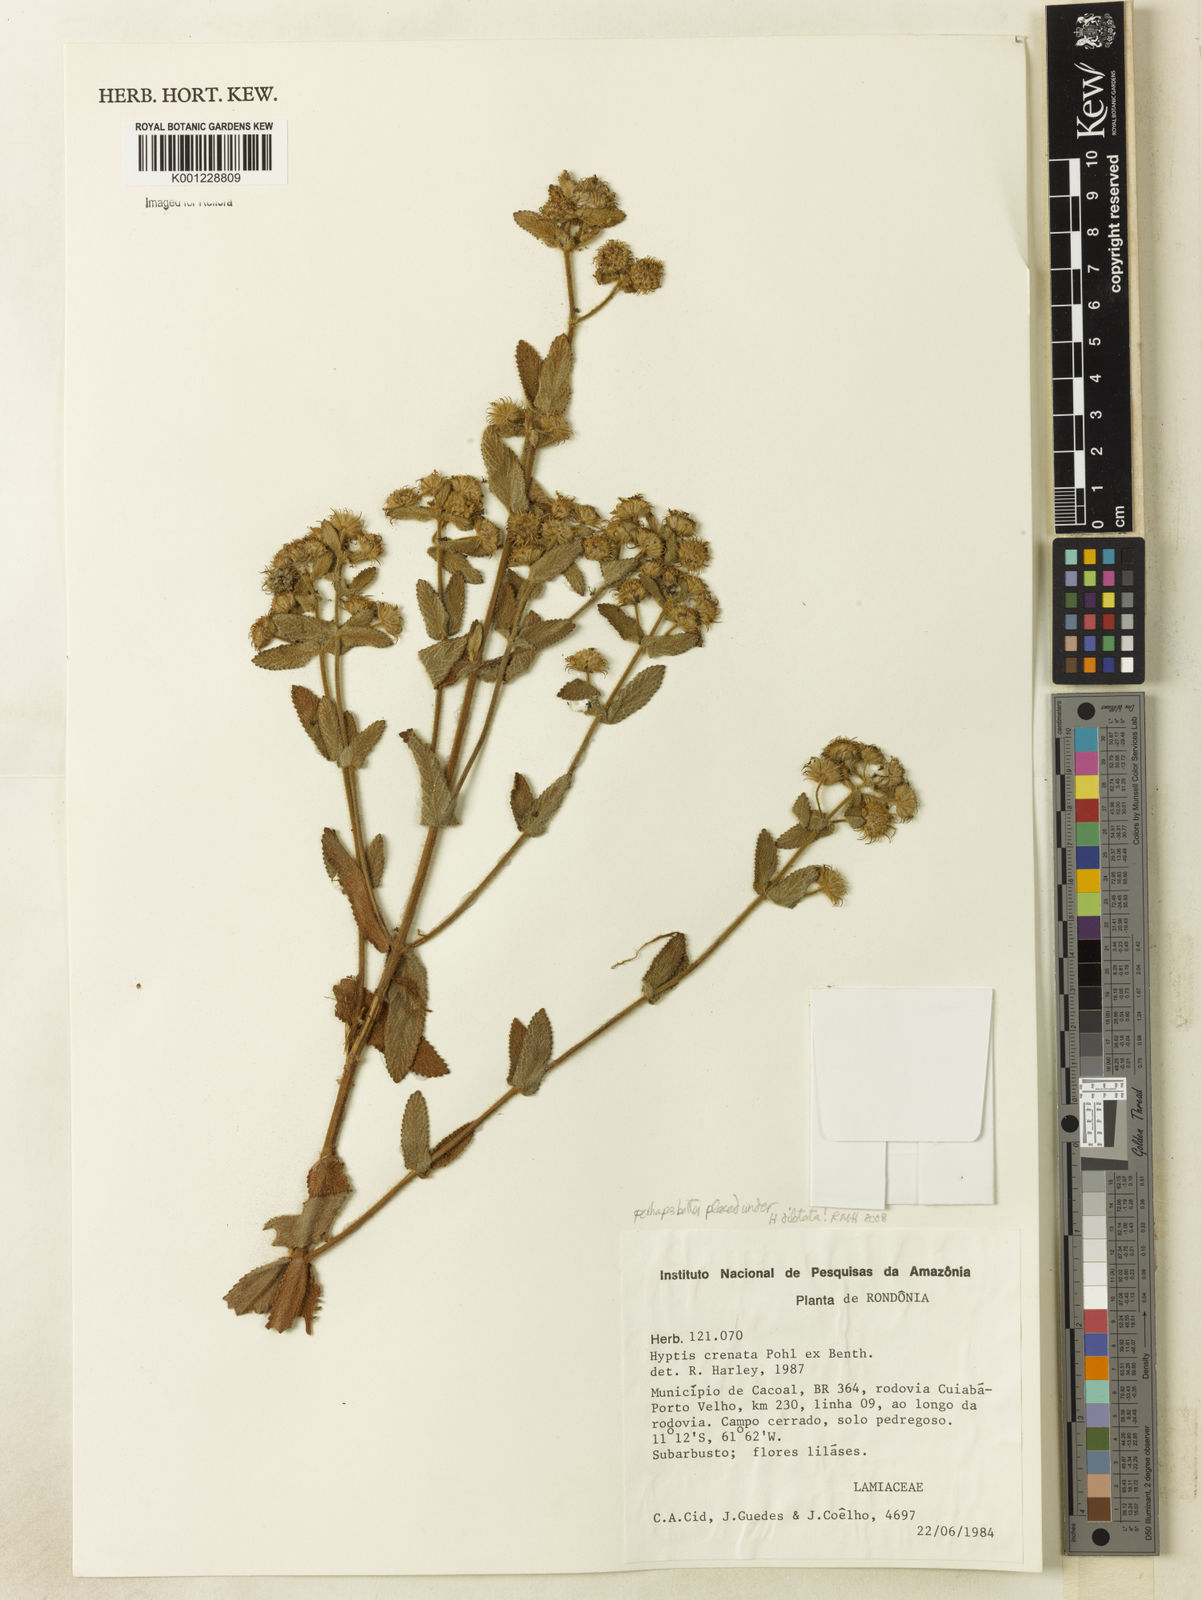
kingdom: Plantae
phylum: Tracheophyta
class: Magnoliopsida
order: Lamiales
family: Lamiaceae
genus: Hyptis
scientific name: Hyptis dilatata
